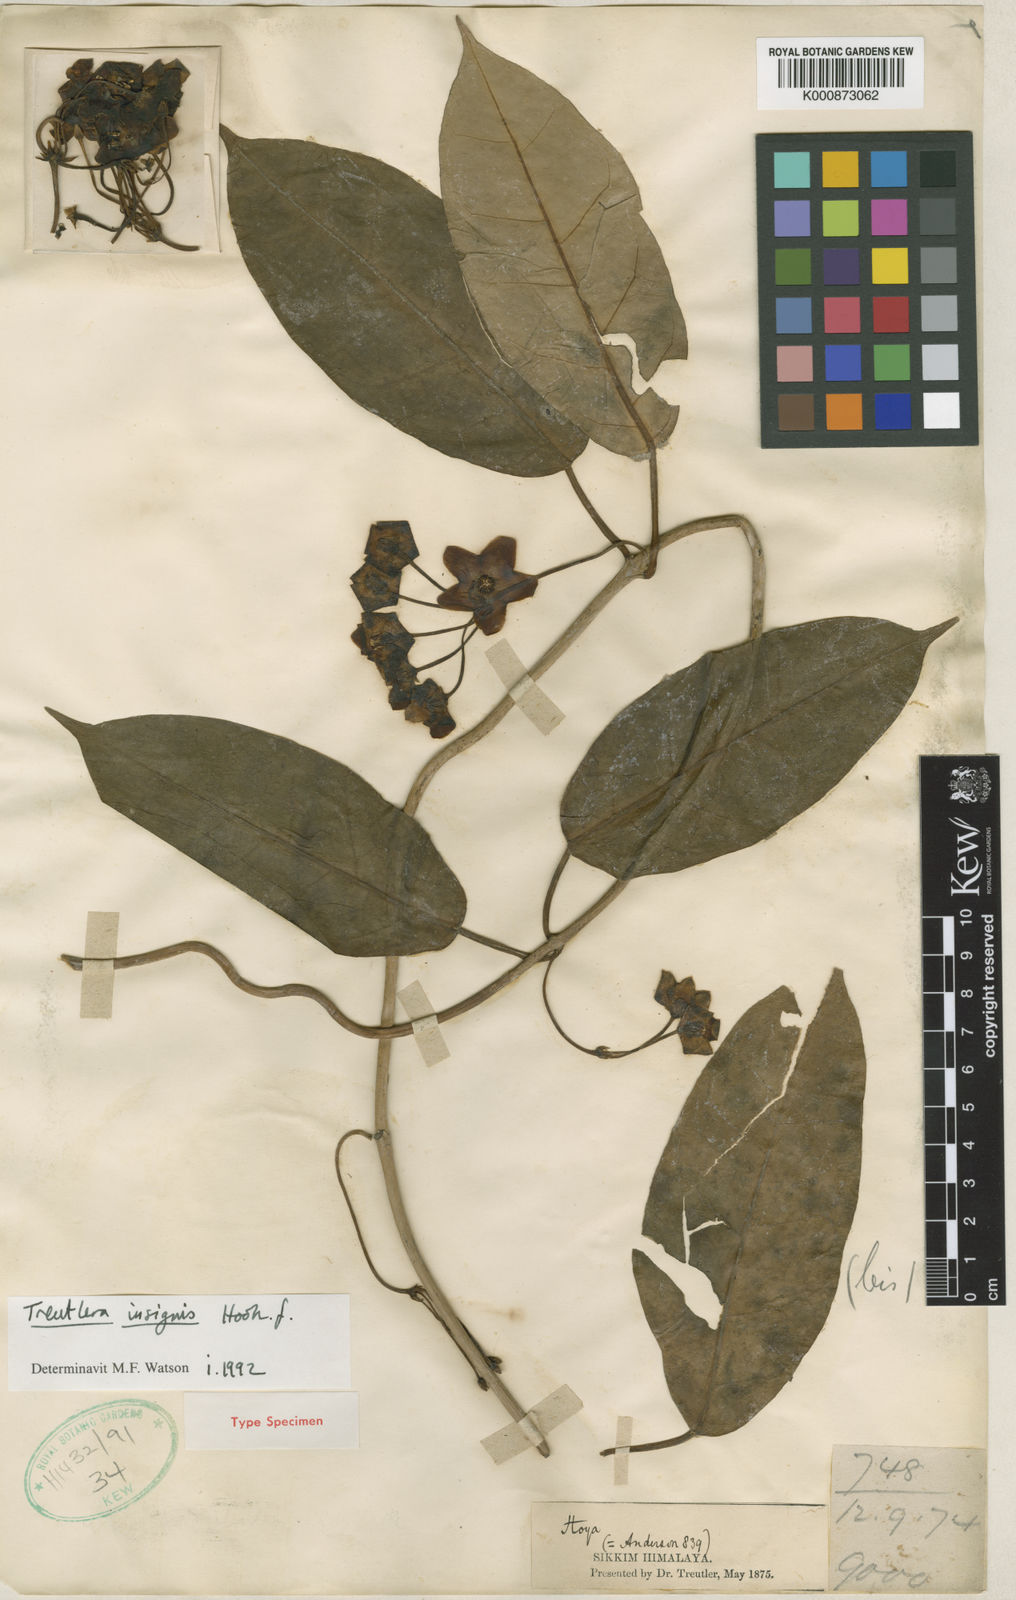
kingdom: Plantae
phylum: Tracheophyta
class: Magnoliopsida
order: Gentianales
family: Apocynaceae
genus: Treutlera
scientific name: Treutlera insignis
